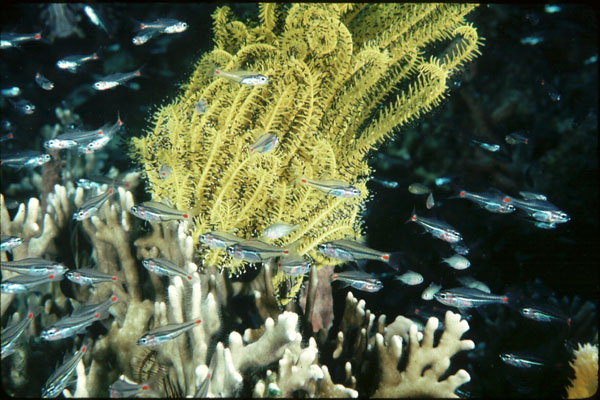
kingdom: Animalia
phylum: Chordata
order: Perciformes
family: Apogonidae
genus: Ostorhinchus
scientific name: Ostorhinchus parvulus
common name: Red-spot cardinalfish
